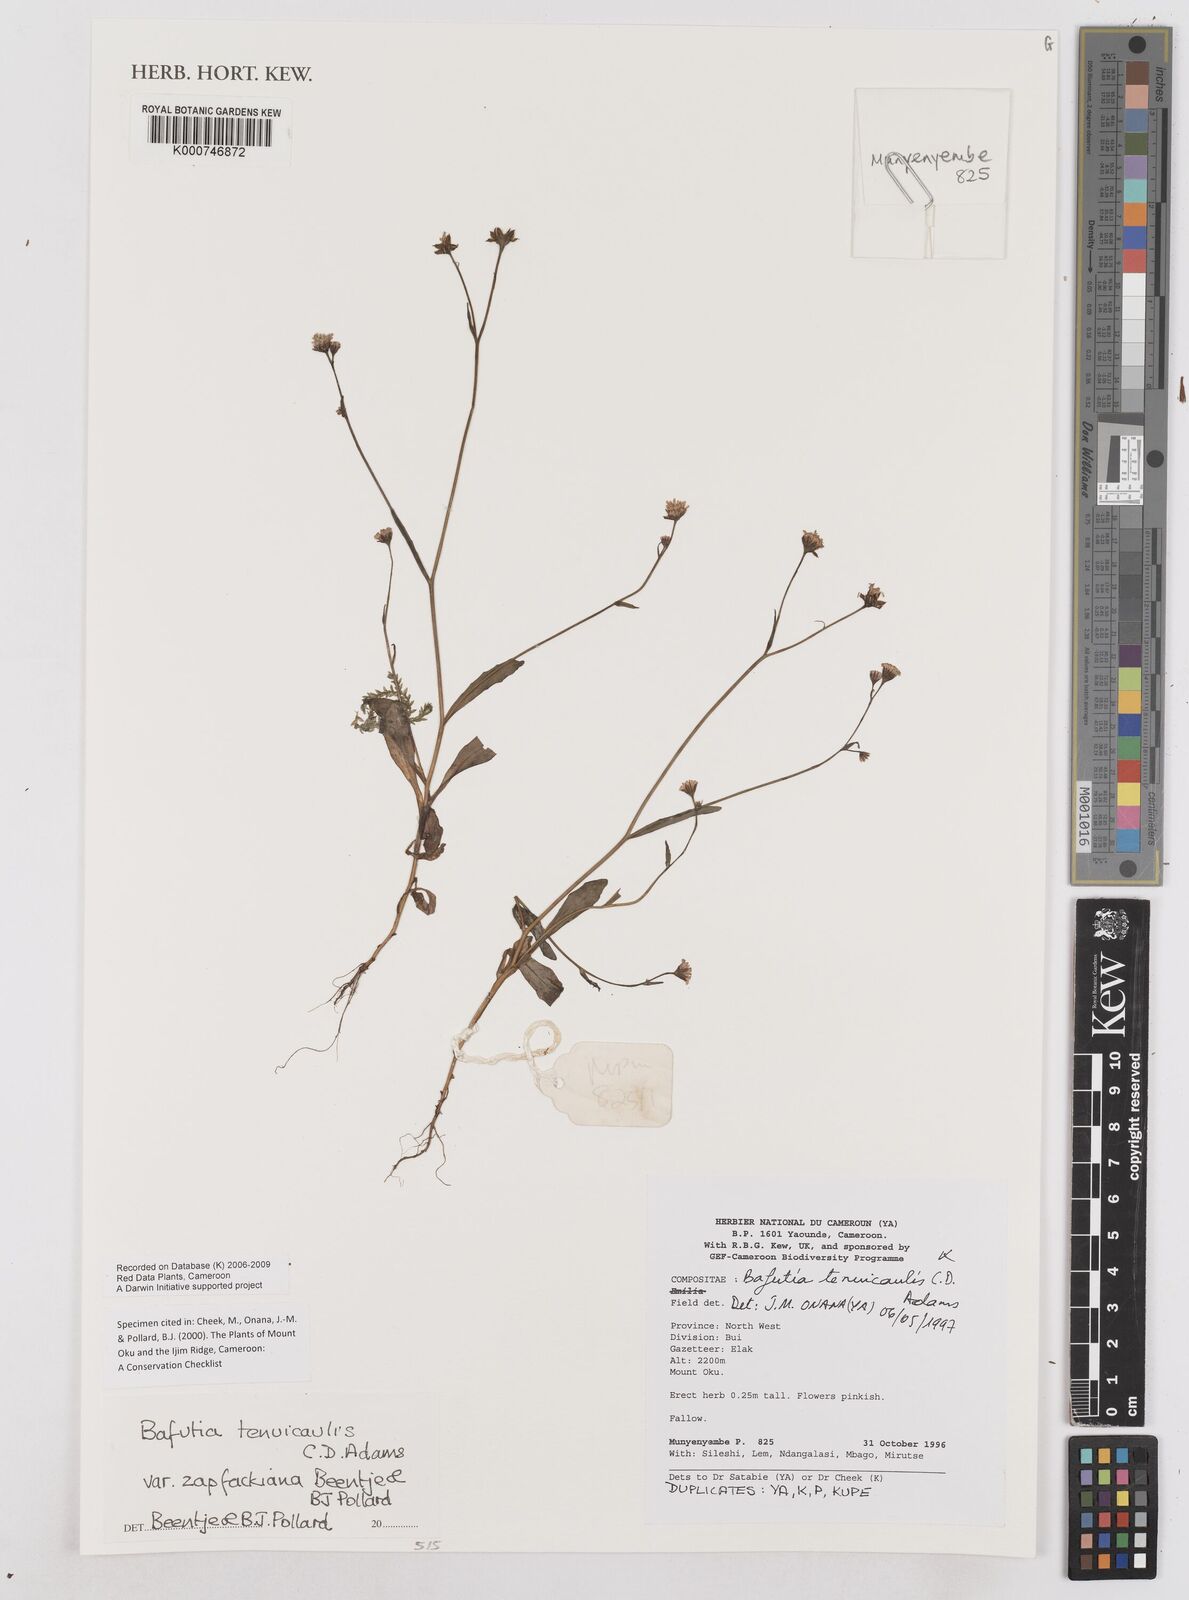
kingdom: Plantae
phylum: Tracheophyta
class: Magnoliopsida
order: Asterales
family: Asteraceae
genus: Emilia
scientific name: Emilia tenuicaulis
